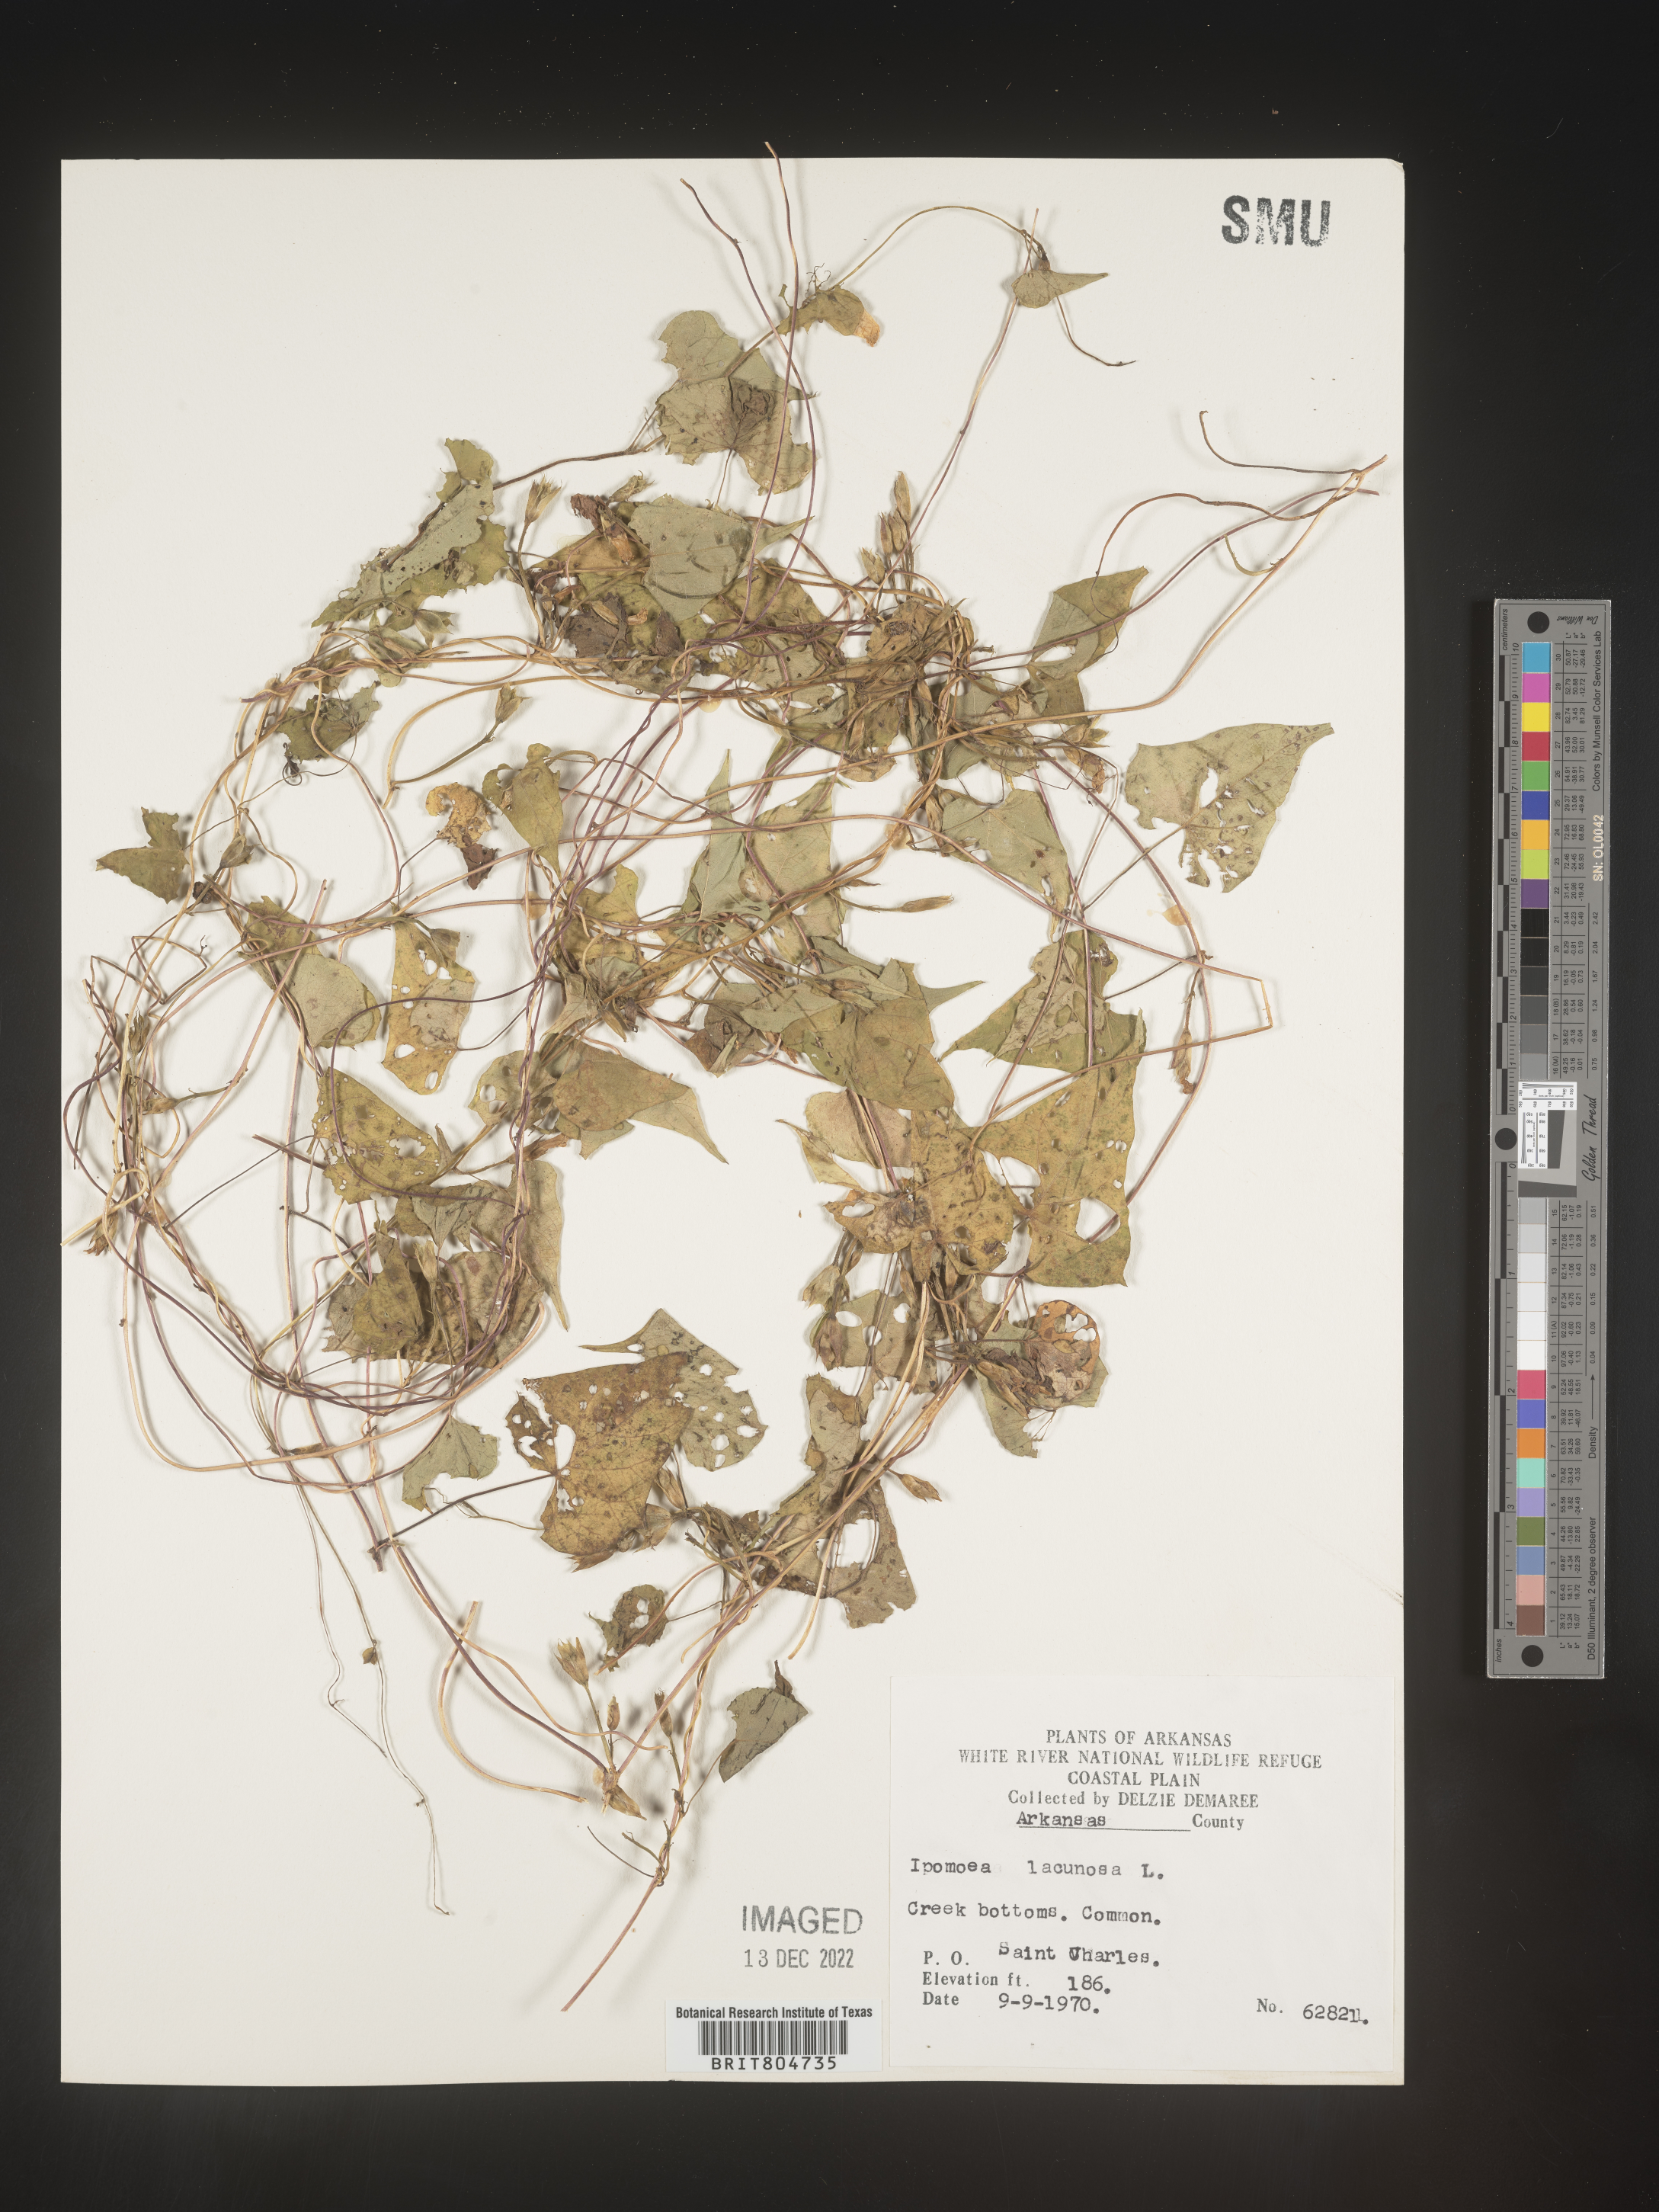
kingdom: Plantae
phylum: Tracheophyta
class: Magnoliopsida
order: Solanales
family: Convolvulaceae
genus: Ipomoea
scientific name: Ipomoea lacunosa
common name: White morning-glory
